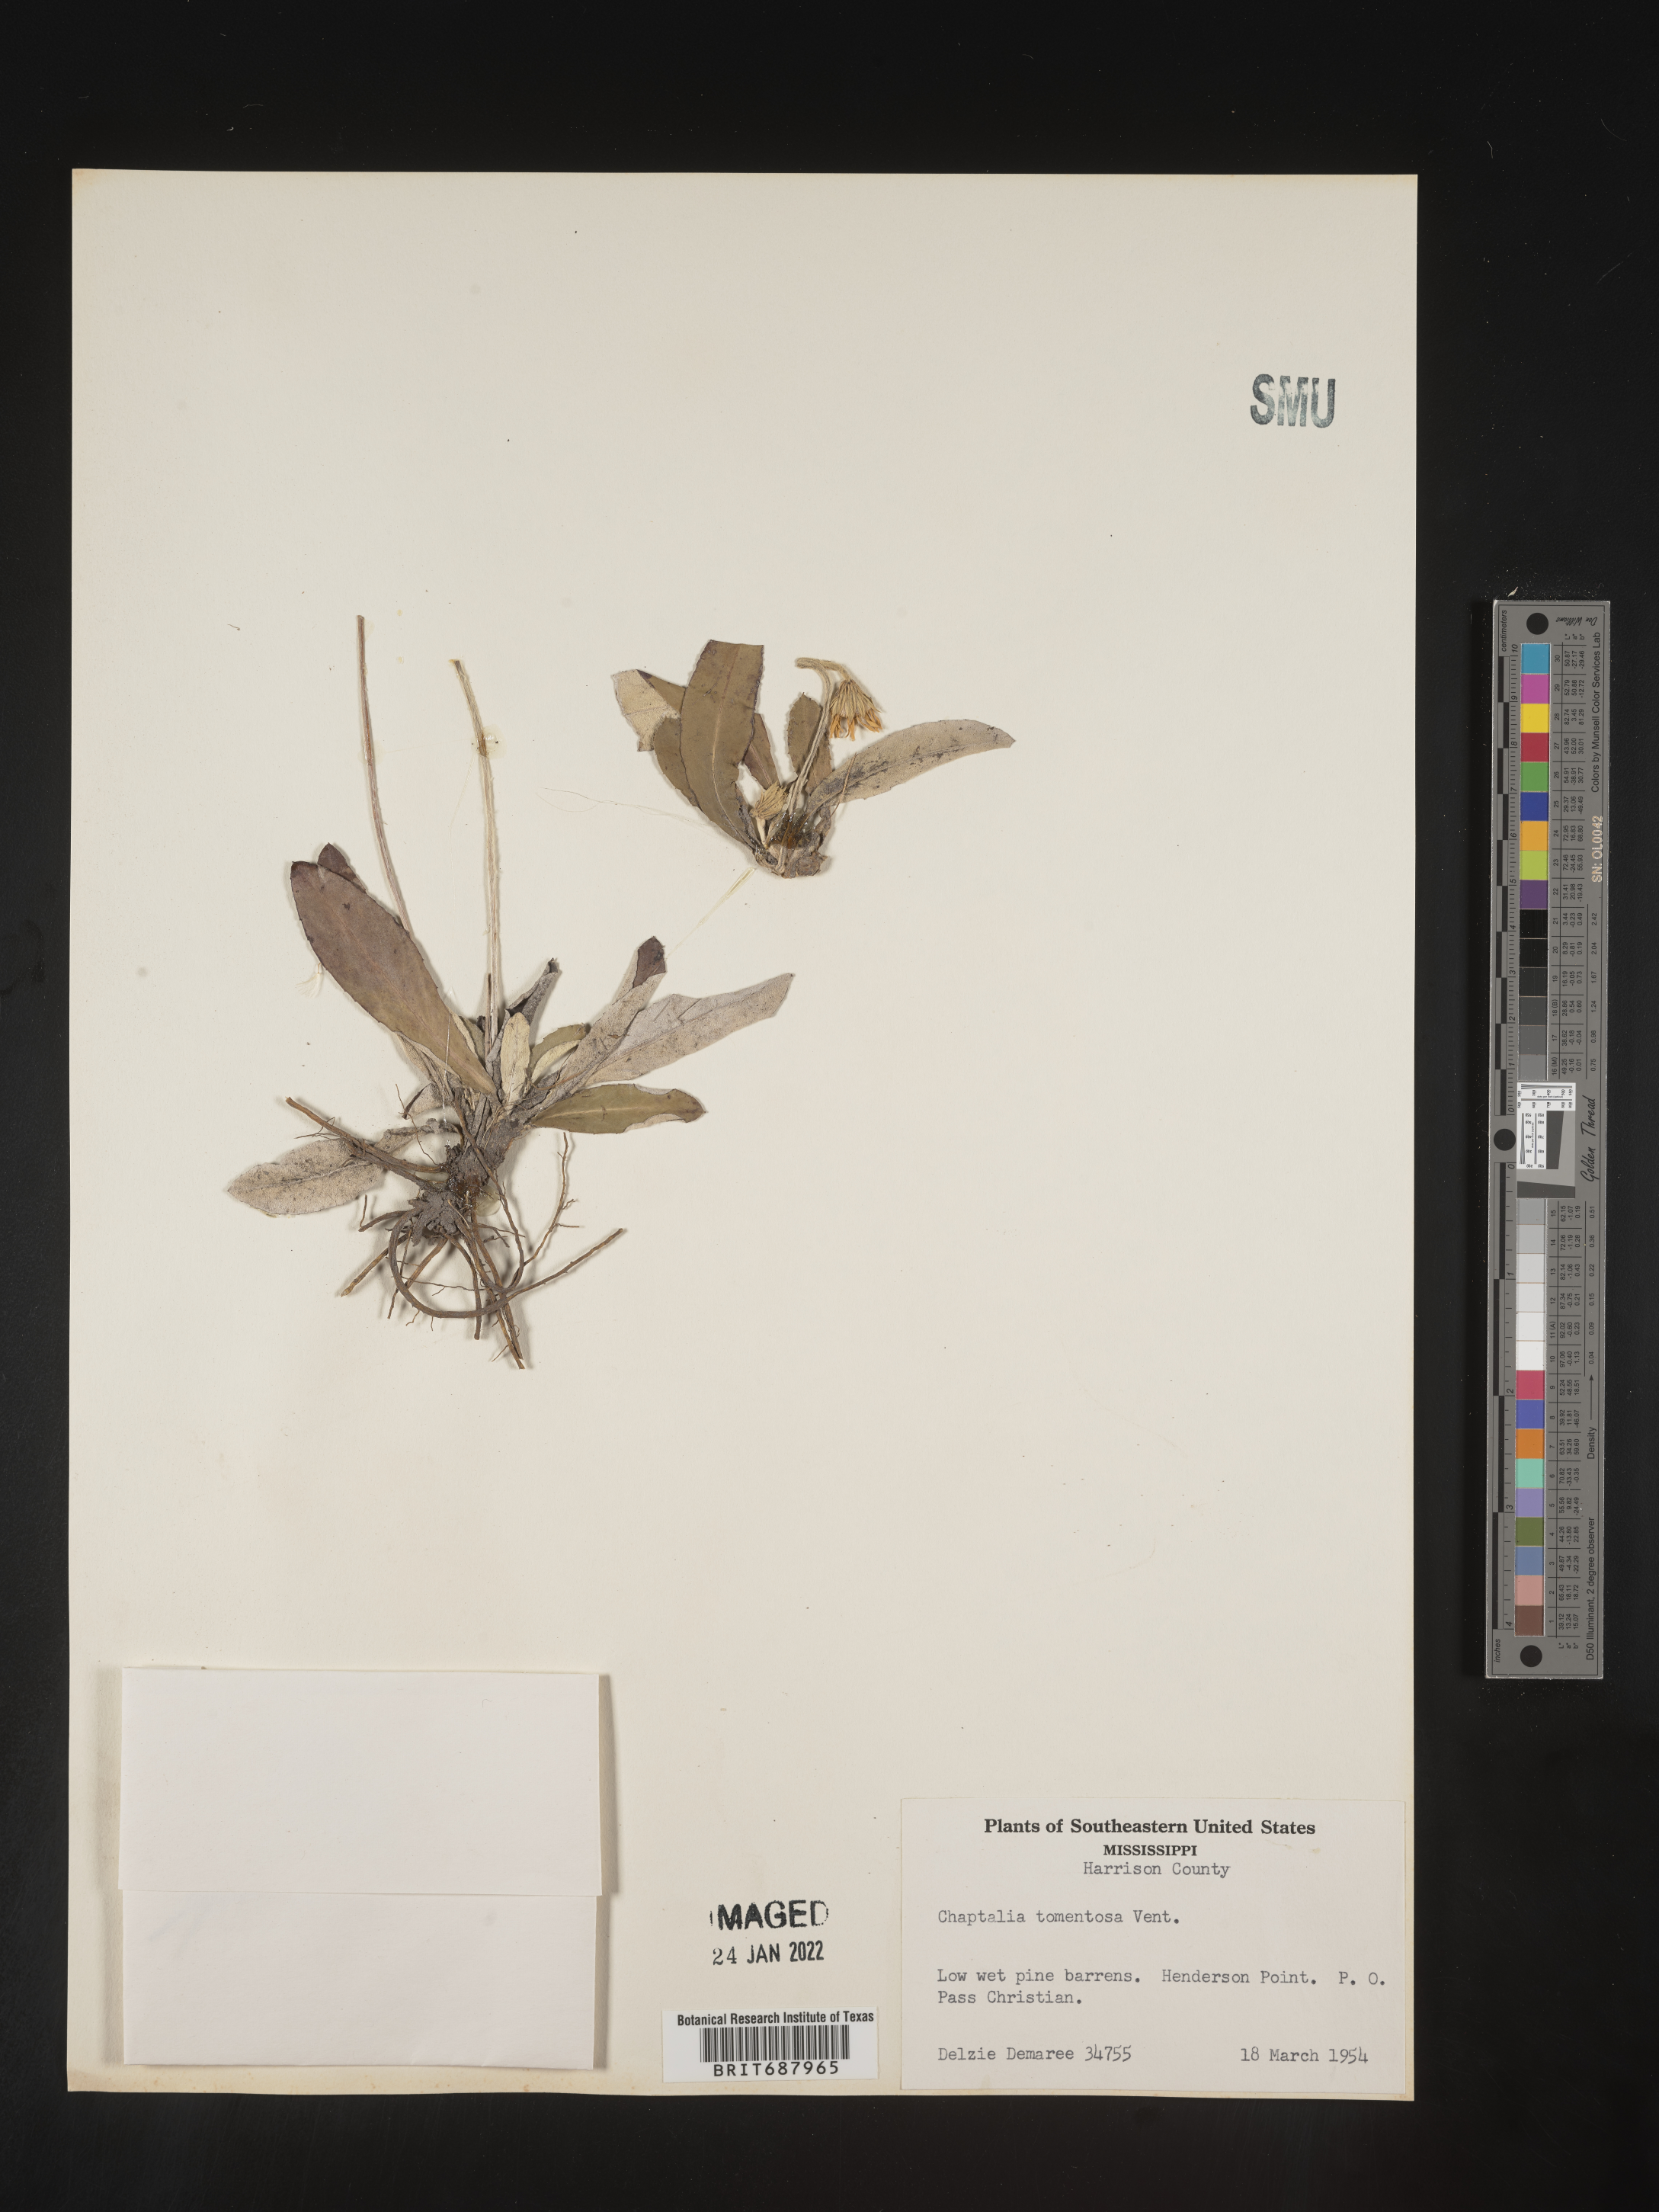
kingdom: Plantae
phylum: Tracheophyta
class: Magnoliopsida
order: Asterales
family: Asteraceae
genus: Chaptalia
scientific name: Chaptalia tomentosa
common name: Woolly sunbonnet
